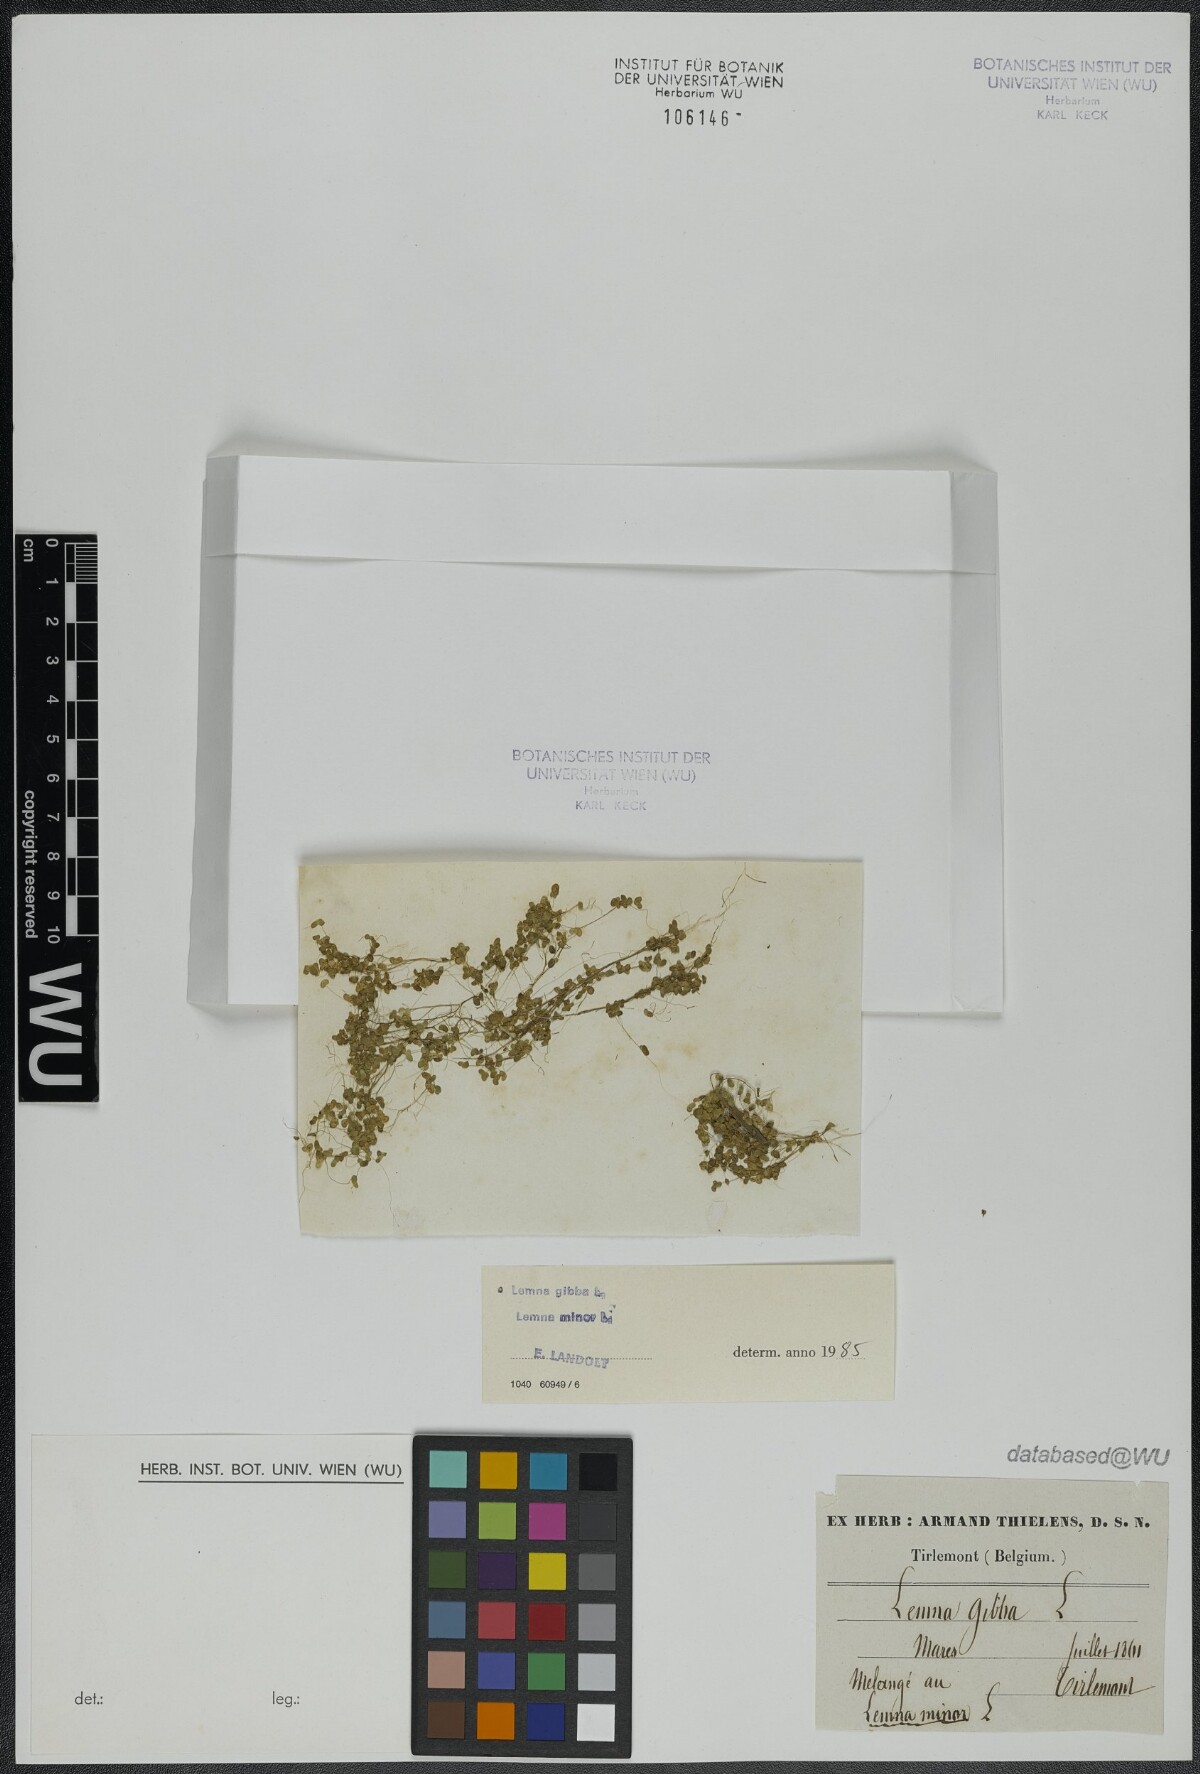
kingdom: Plantae
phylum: Tracheophyta
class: Liliopsida
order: Alismatales
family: Araceae
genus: Lemna
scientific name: Lemna gibba
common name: Fat duckweed
